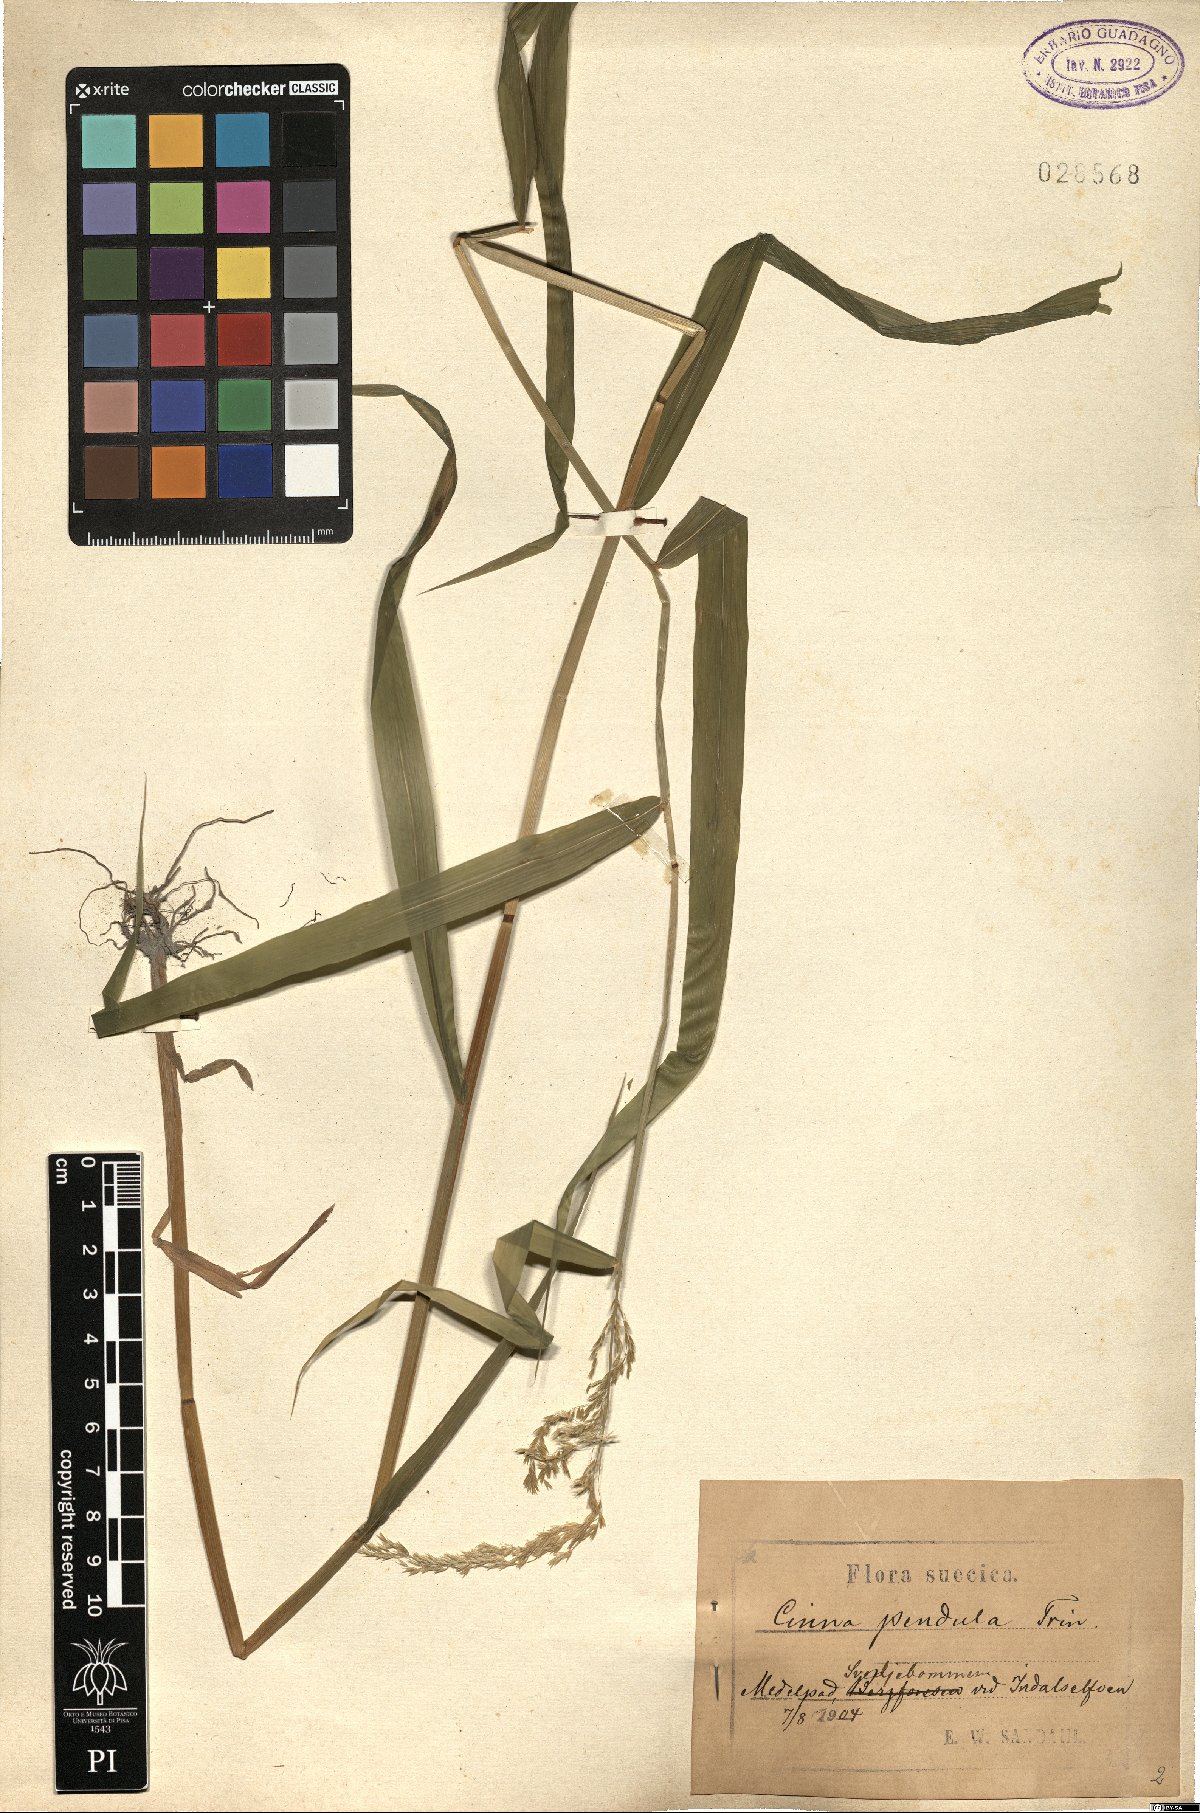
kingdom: Plantae
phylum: Tracheophyta
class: Liliopsida
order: Poales
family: Poaceae
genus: Cinna
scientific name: Cinna latifolia
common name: Drooping woodreed
